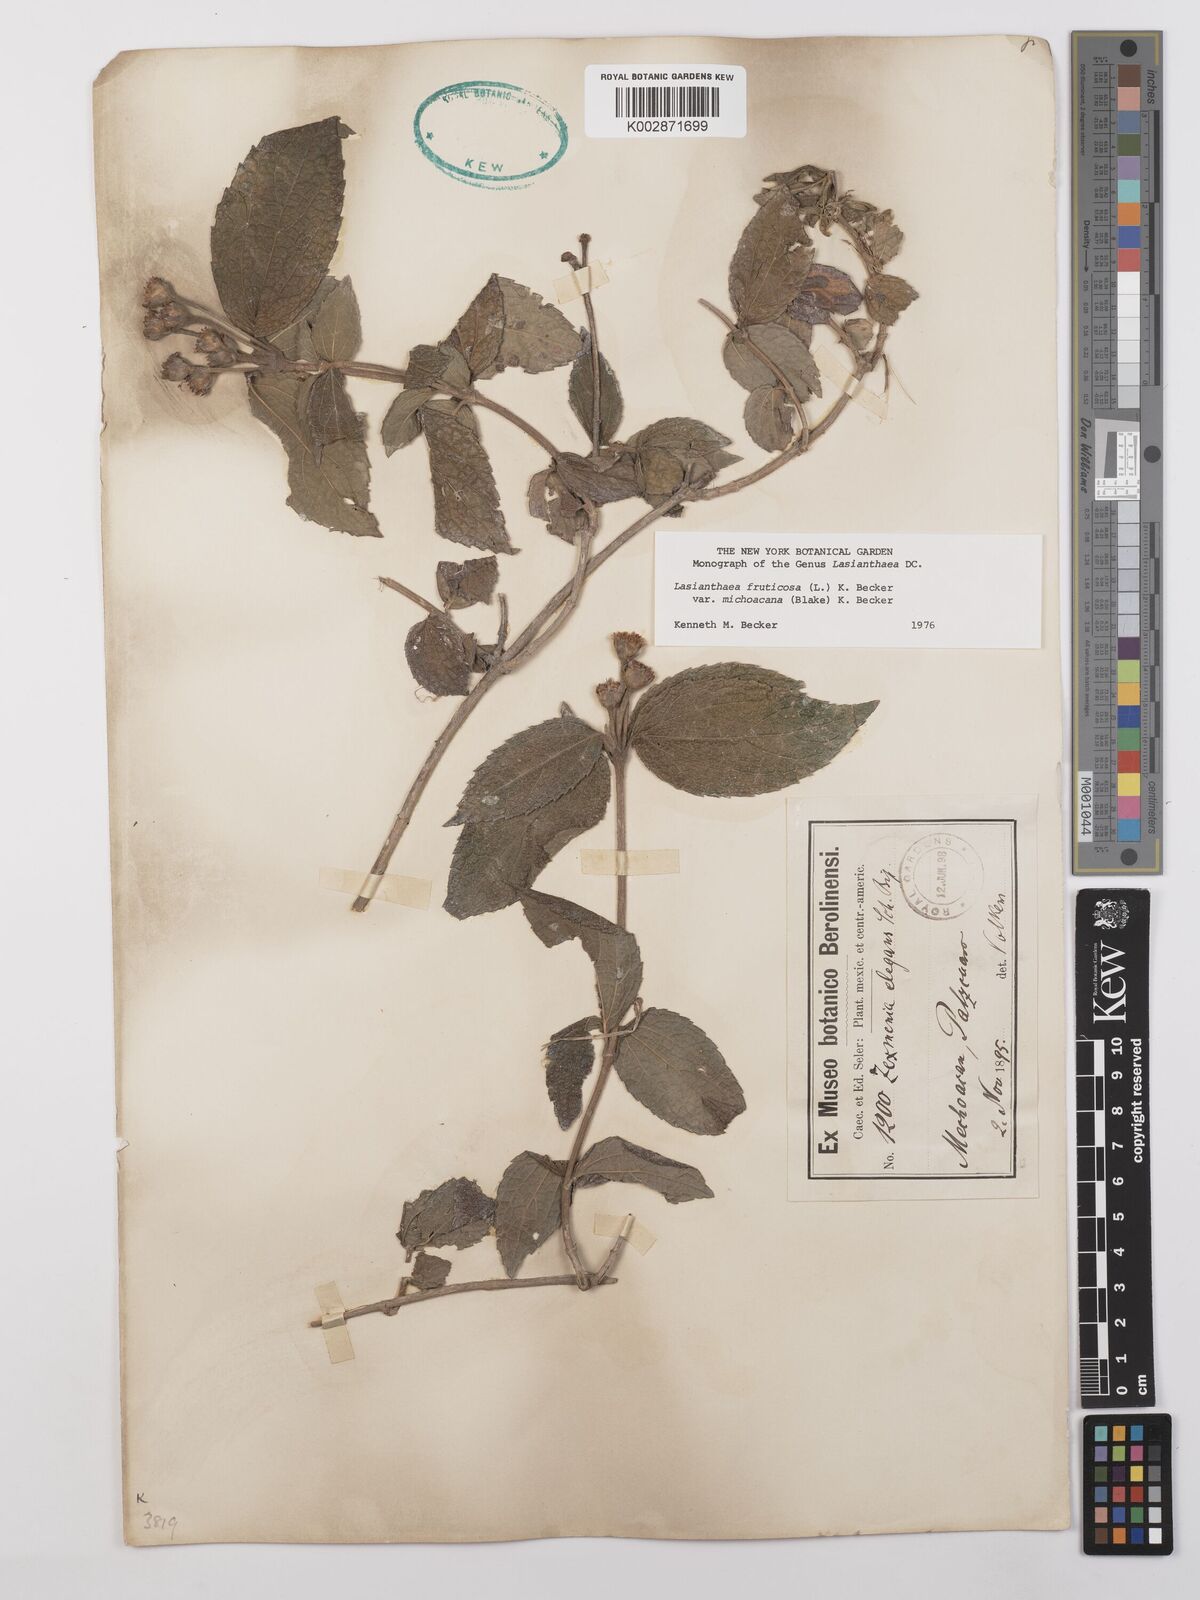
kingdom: Plantae
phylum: Tracheophyta
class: Magnoliopsida
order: Asterales
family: Asteraceae
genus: Lasianthaea
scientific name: Lasianthaea fruticosa
